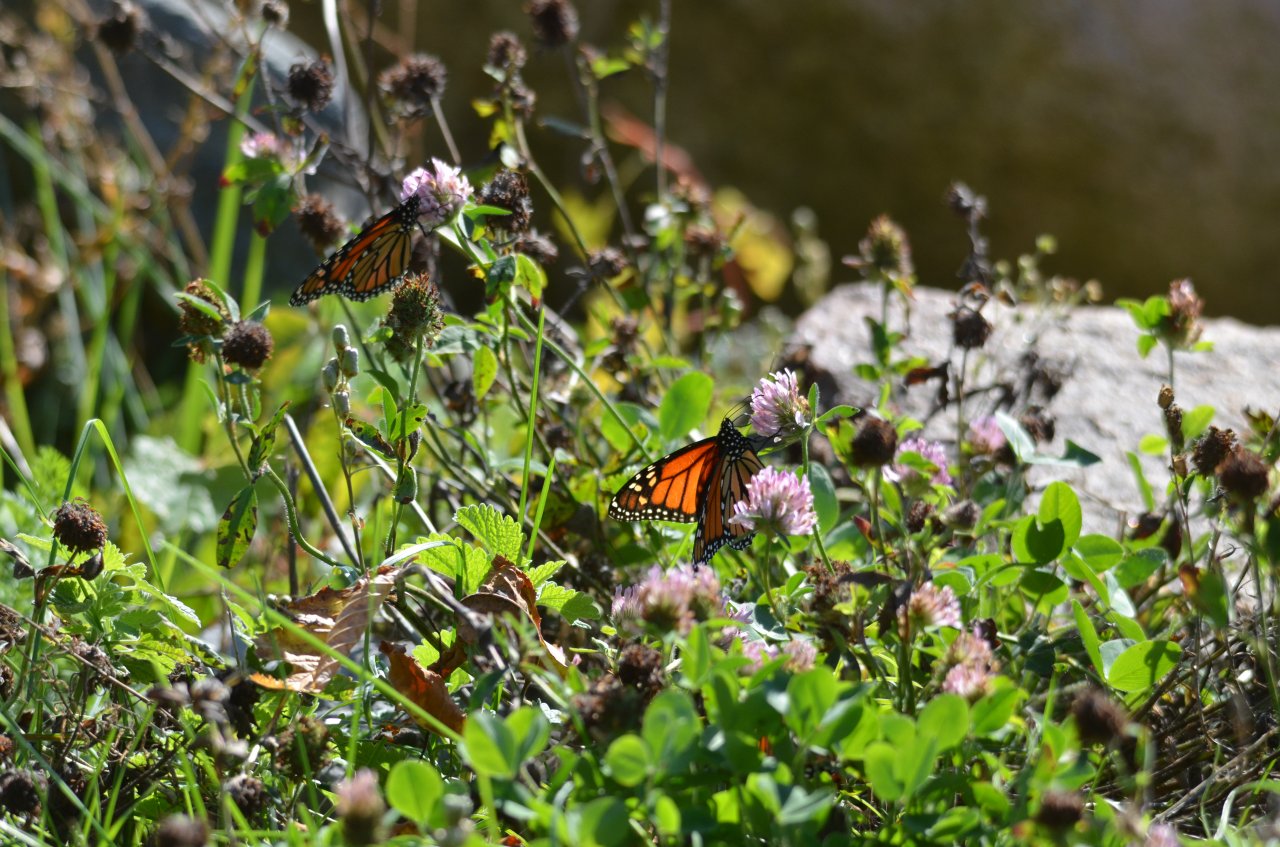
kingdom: Animalia
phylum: Arthropoda
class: Insecta
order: Lepidoptera
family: Nymphalidae
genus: Danaus
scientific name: Danaus plexippus
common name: Monarch
